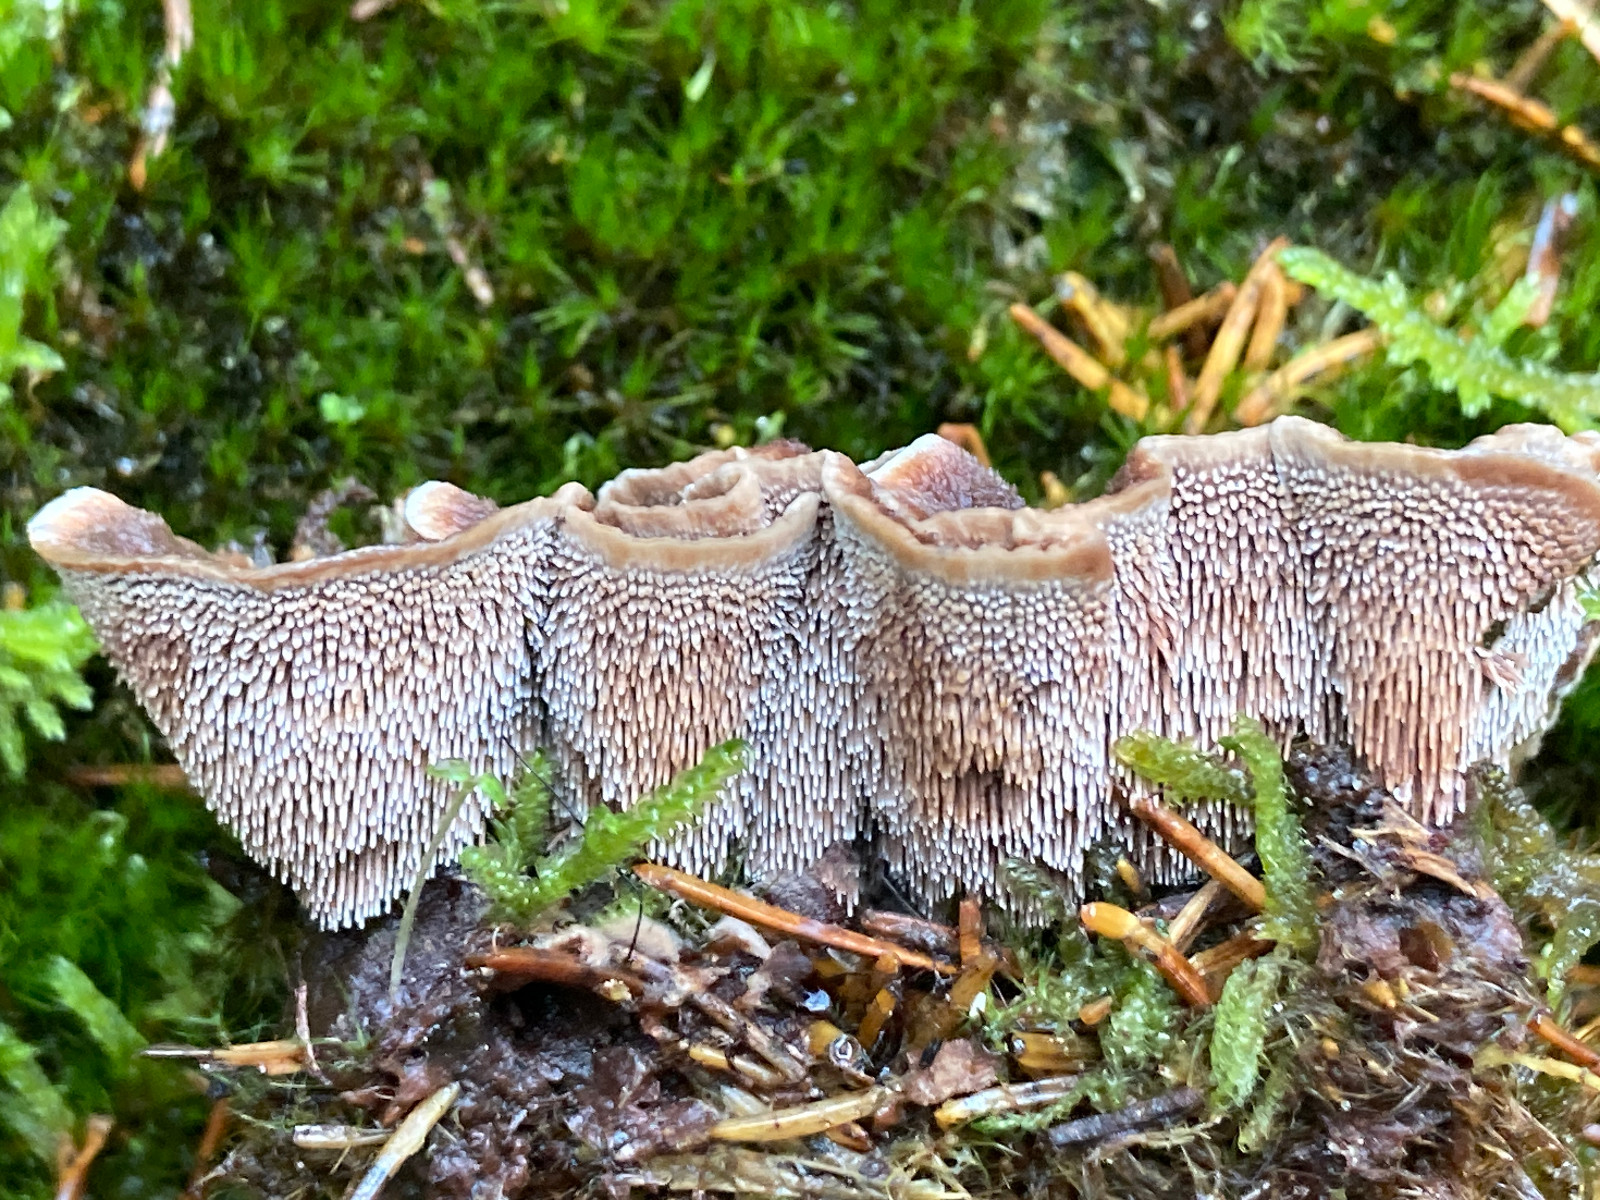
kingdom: Fungi
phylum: Basidiomycota
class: Agaricomycetes
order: Thelephorales
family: Bankeraceae
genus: Hydnellum
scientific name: Hydnellum cumulatum
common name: Rosette tooth
